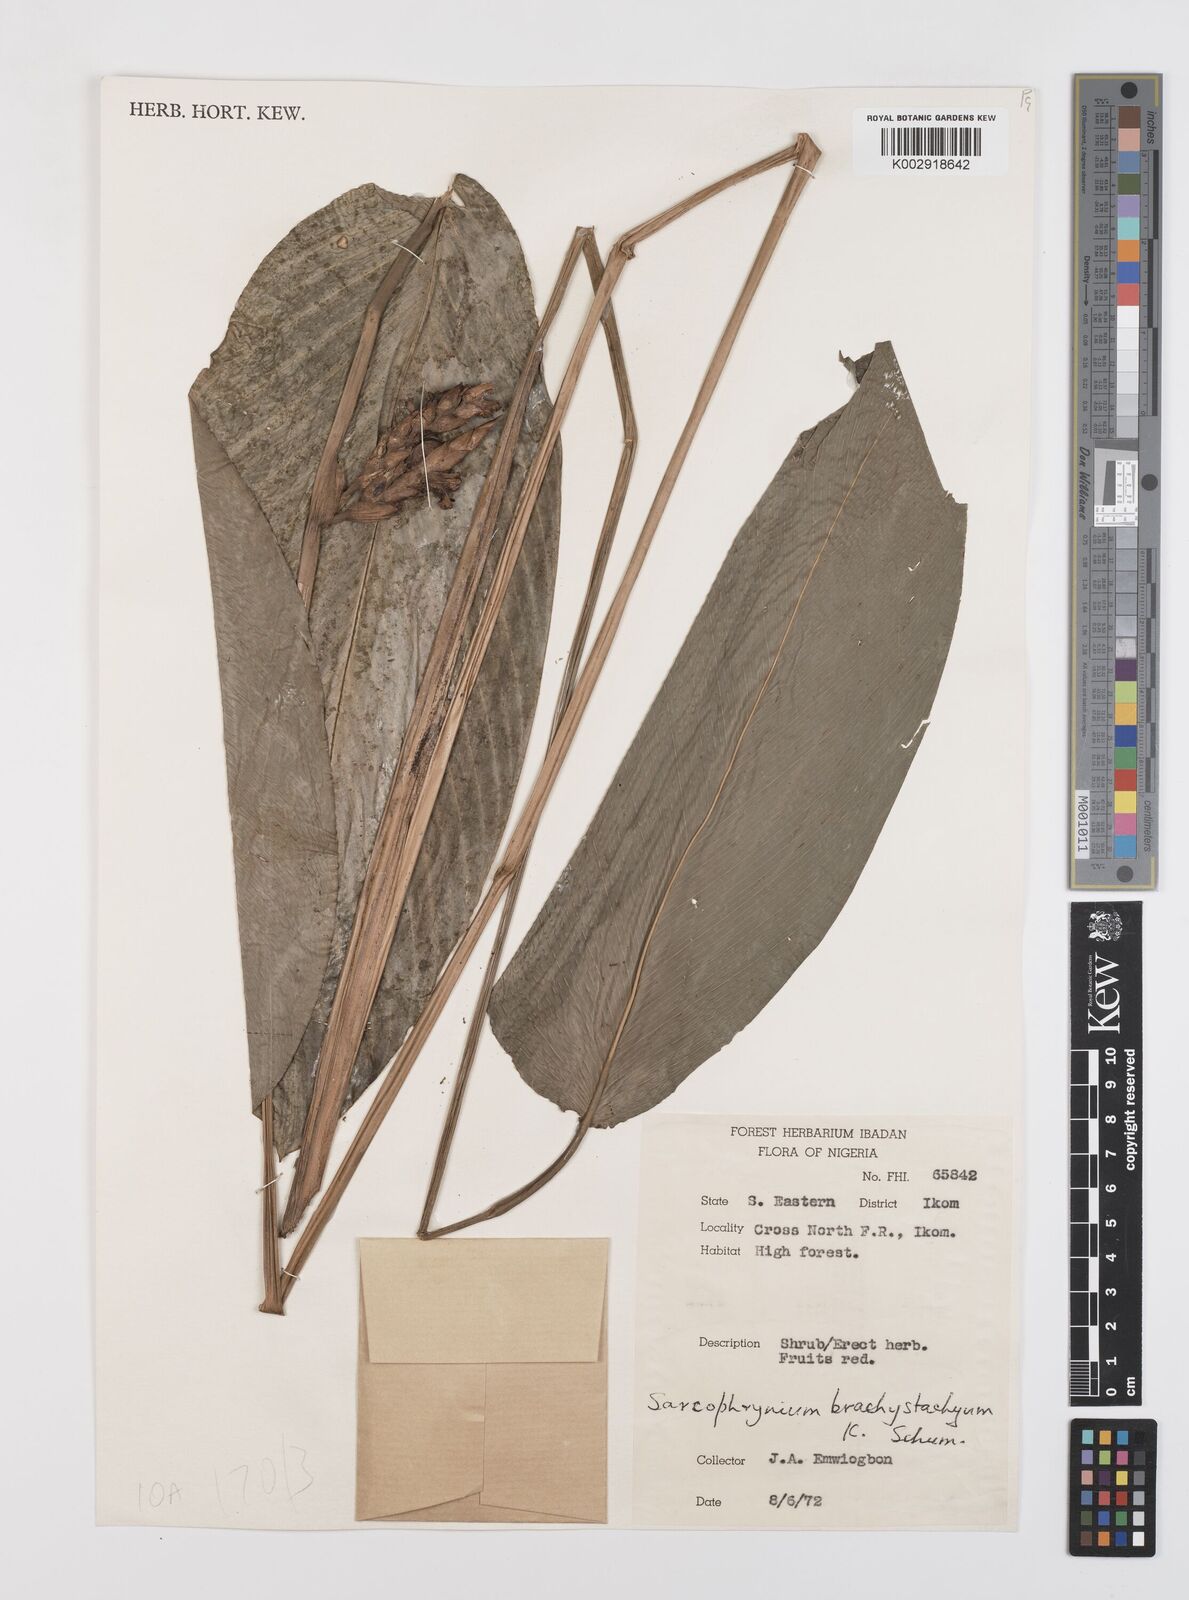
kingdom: Plantae
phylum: Tracheophyta
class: Liliopsida
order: Zingiberales
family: Marantaceae
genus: Sarcophrynium
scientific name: Sarcophrynium brachystachyum
